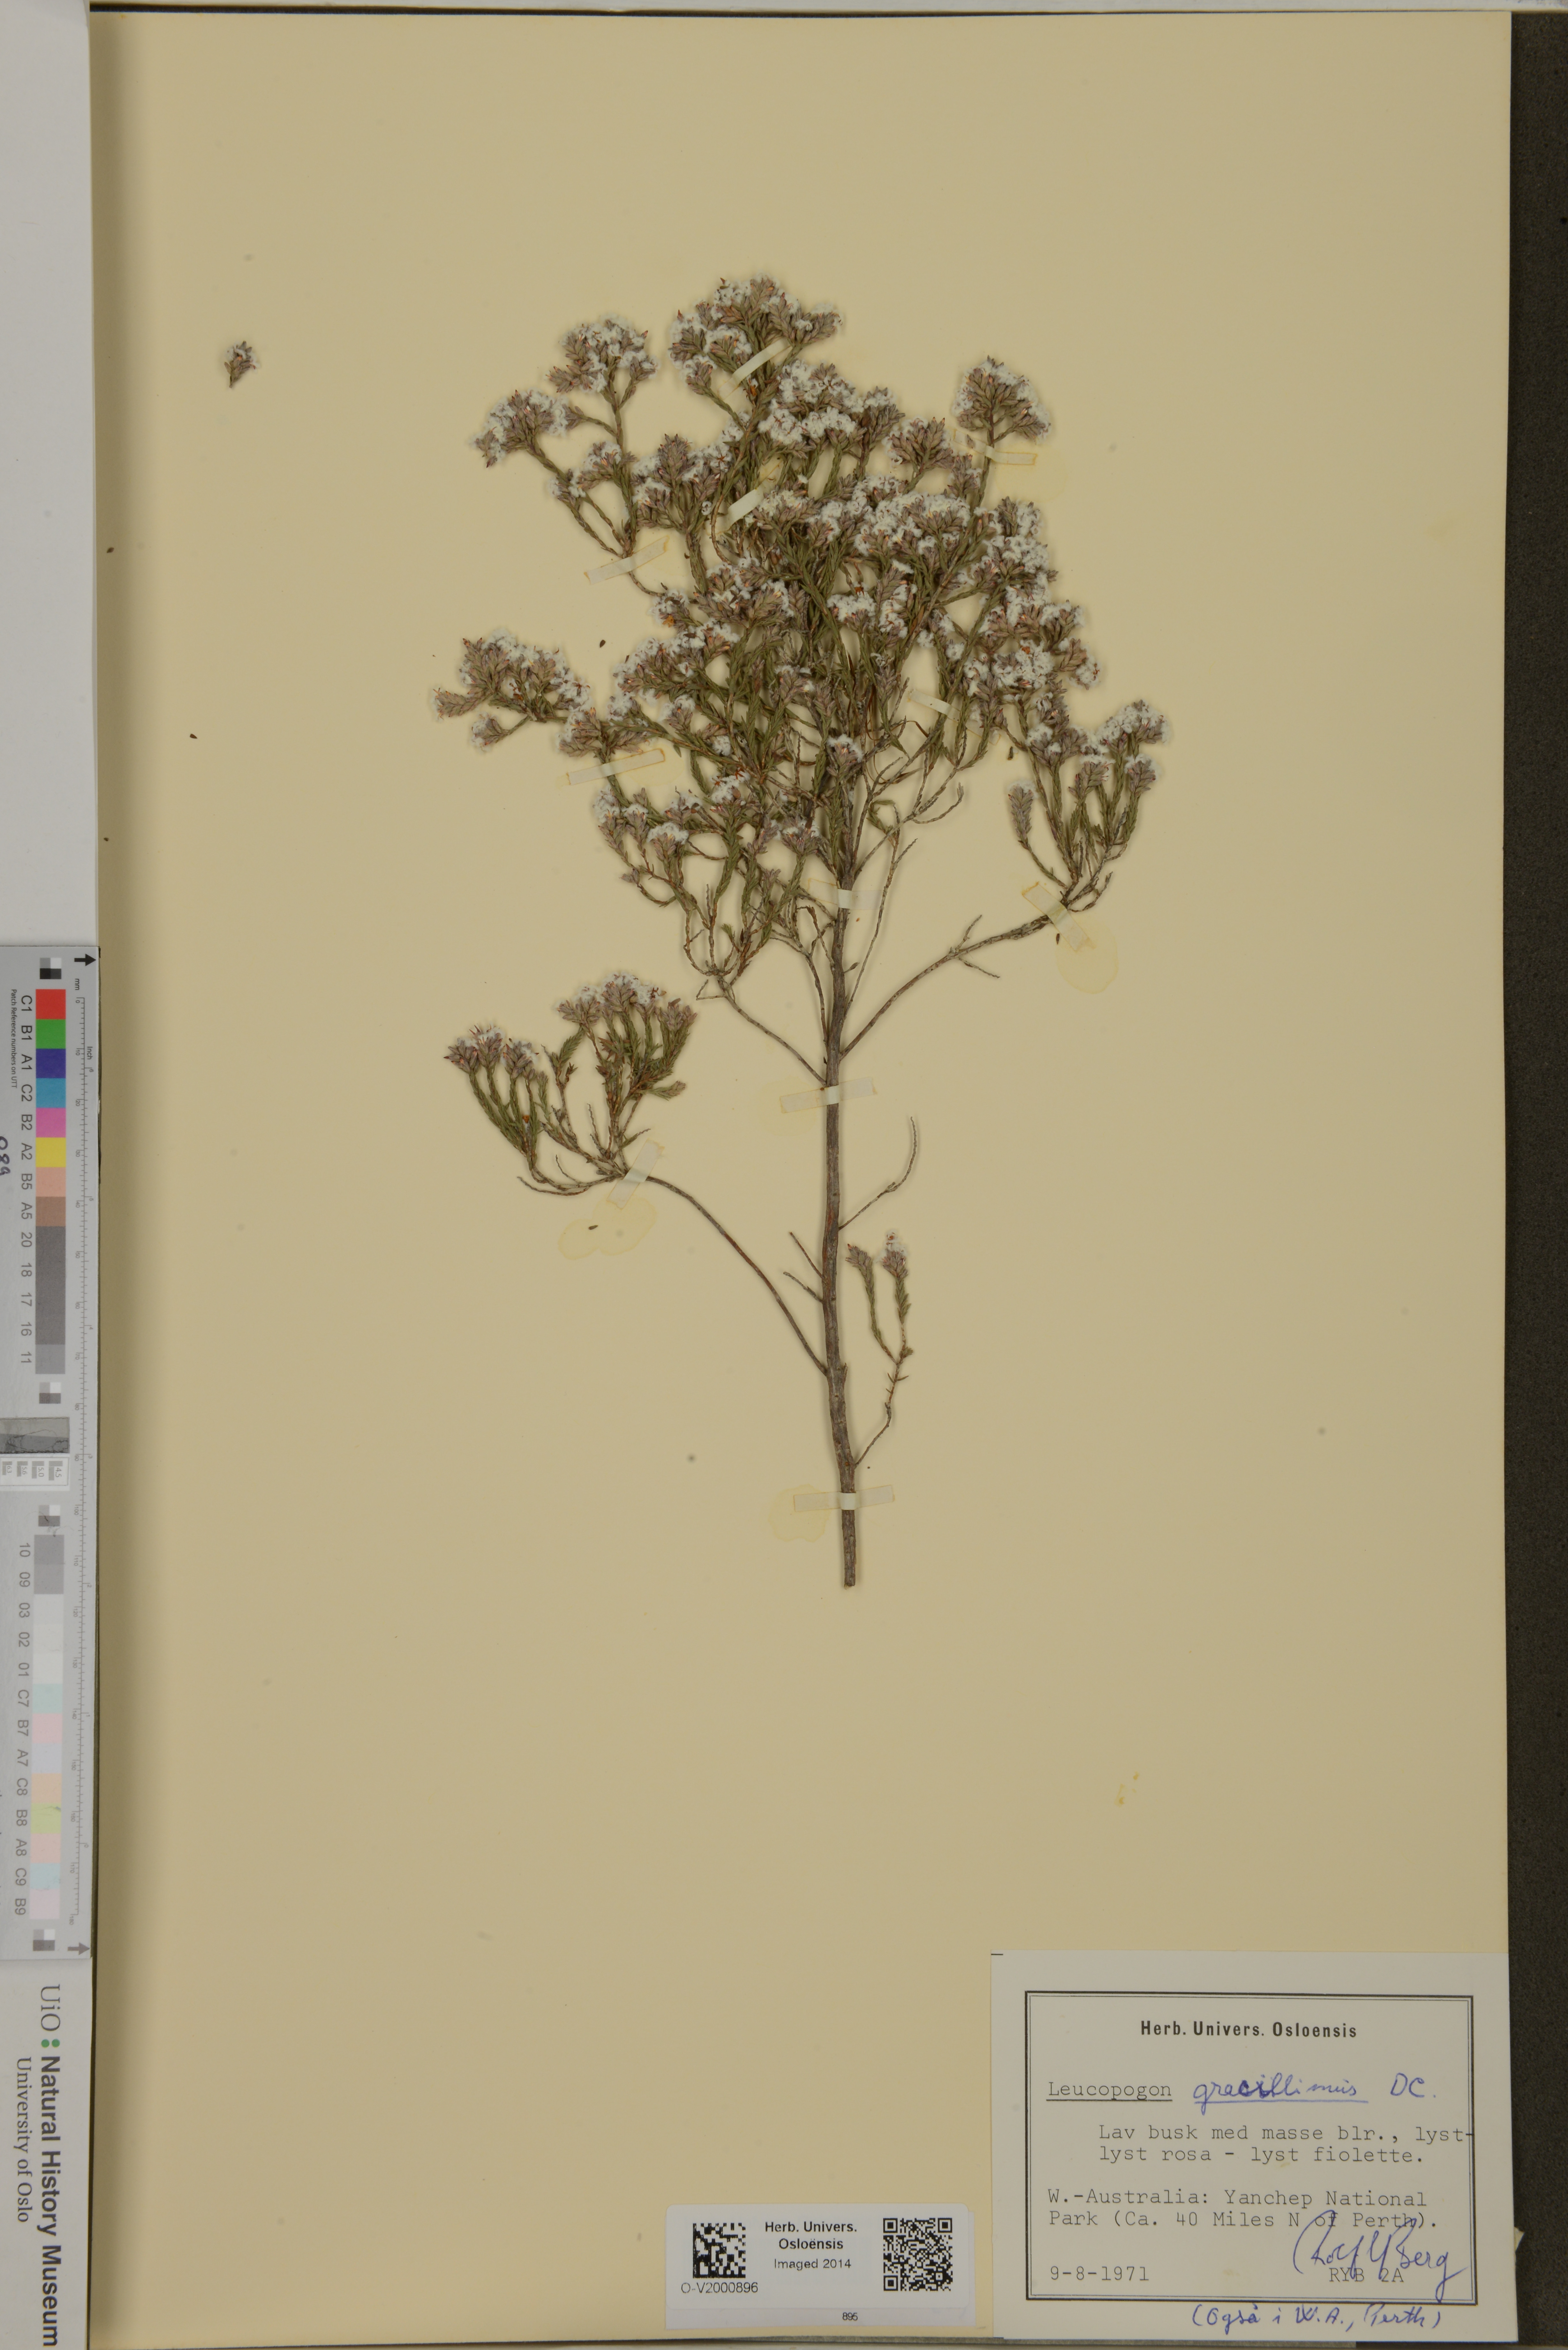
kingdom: Plantae
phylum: Tracheophyta
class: Magnoliopsida
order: Ericales
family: Ericaceae
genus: Leucopogon
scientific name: Leucopogon gracillimus
